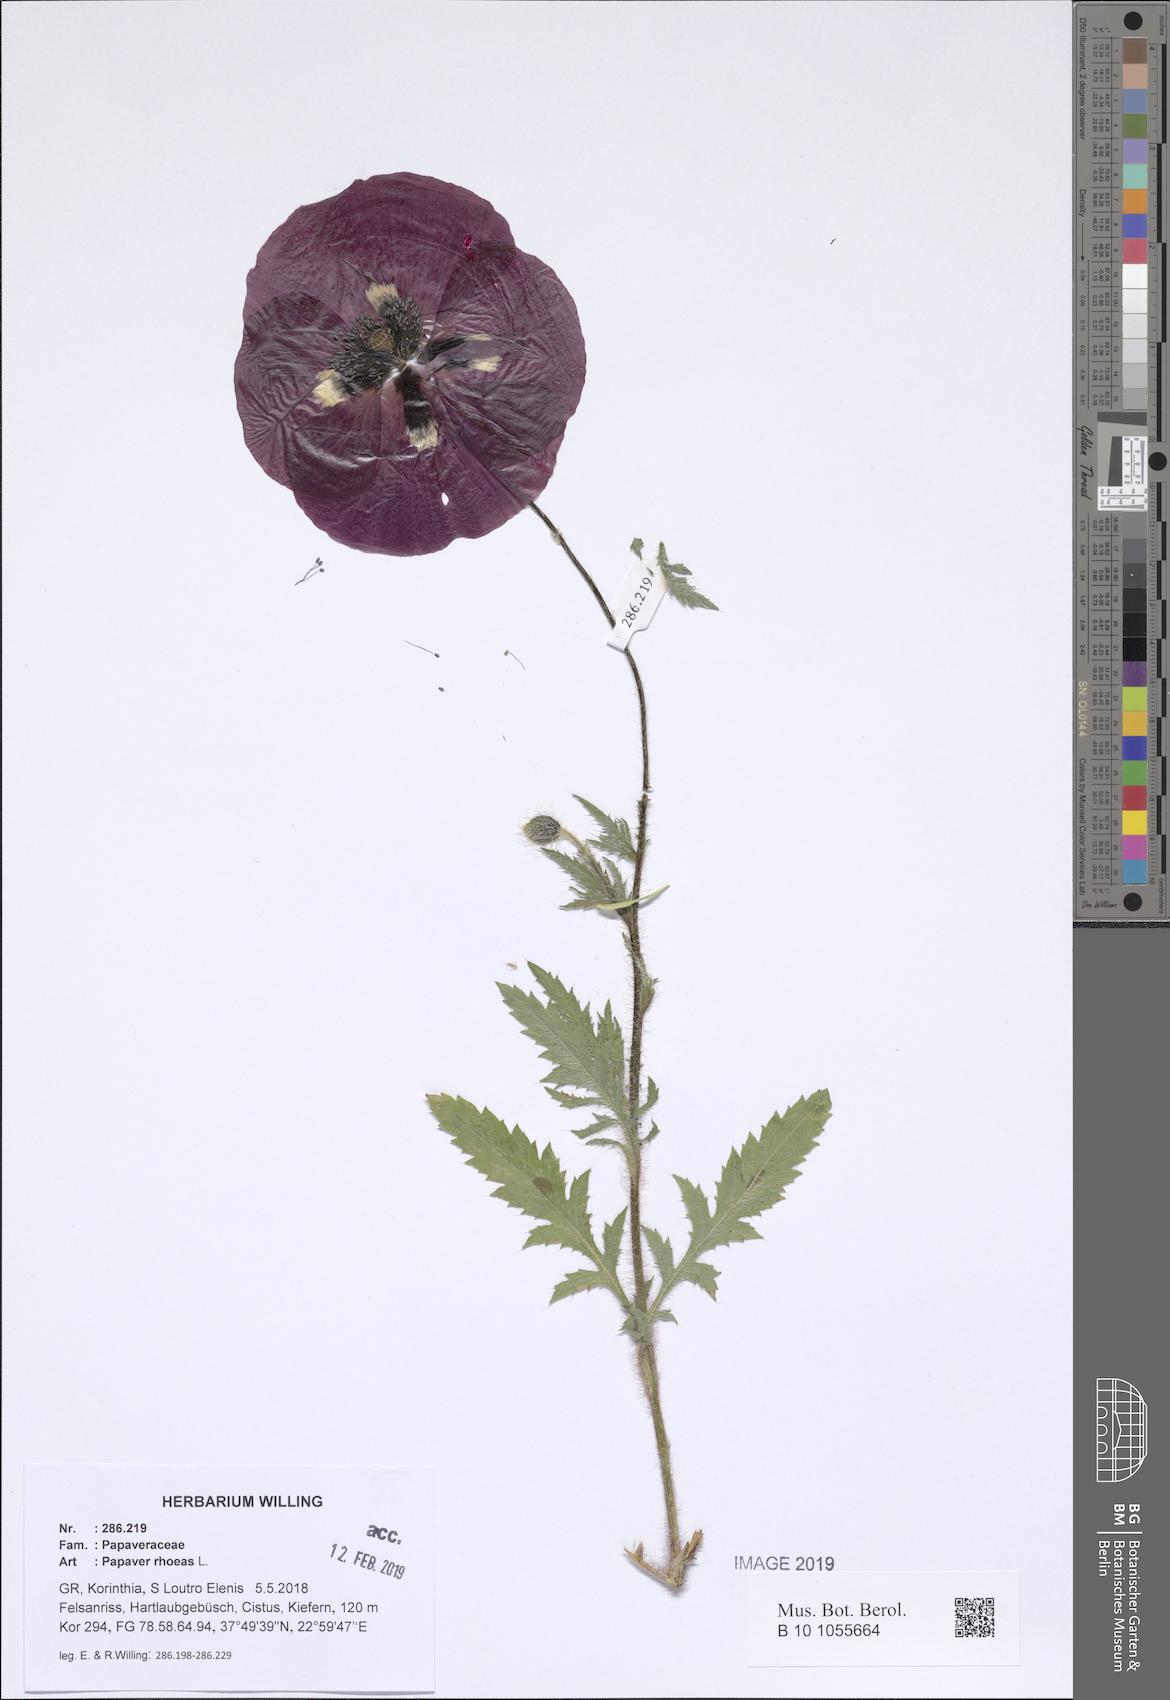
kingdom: Plantae
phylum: Tracheophyta
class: Magnoliopsida
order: Ranunculales
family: Papaveraceae
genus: Papaver
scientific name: Papaver rhoeas
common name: Corn poppy
